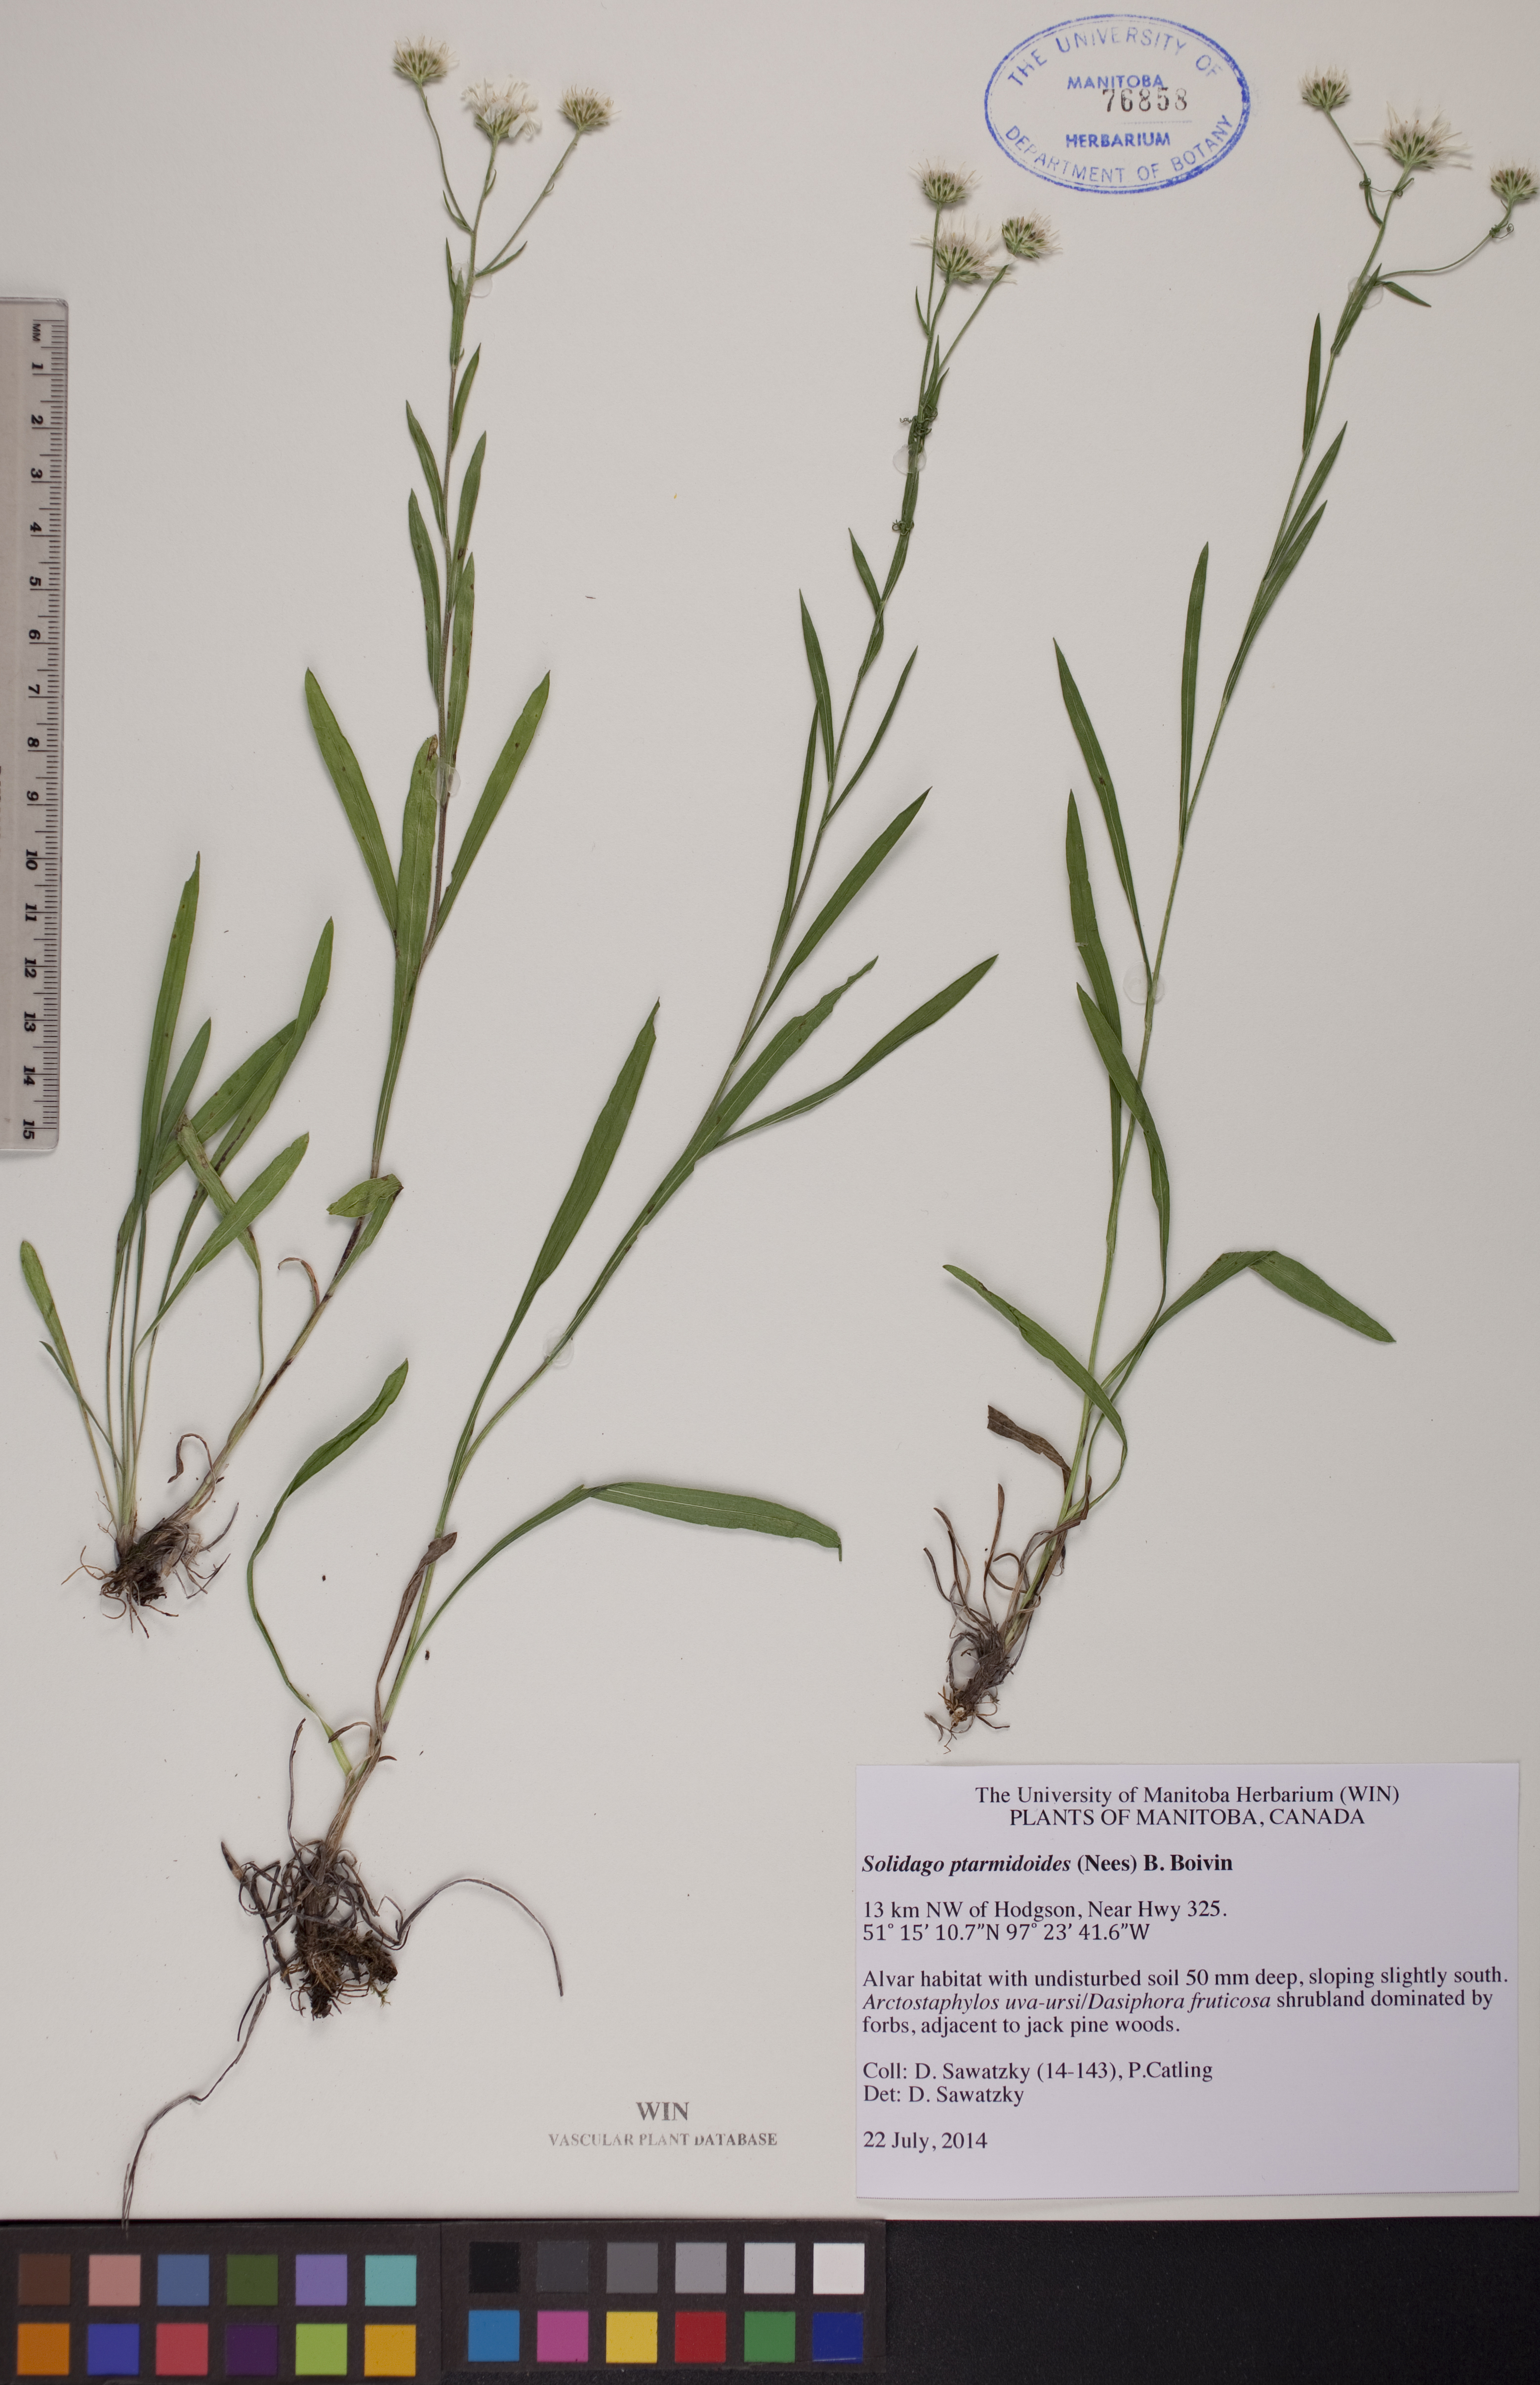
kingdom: Plantae
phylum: Tracheophyta
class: Magnoliopsida
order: Asterales
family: Asteraceae
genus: Solidago
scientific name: Solidago ptarmicoides
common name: White flat-top goldenrod
